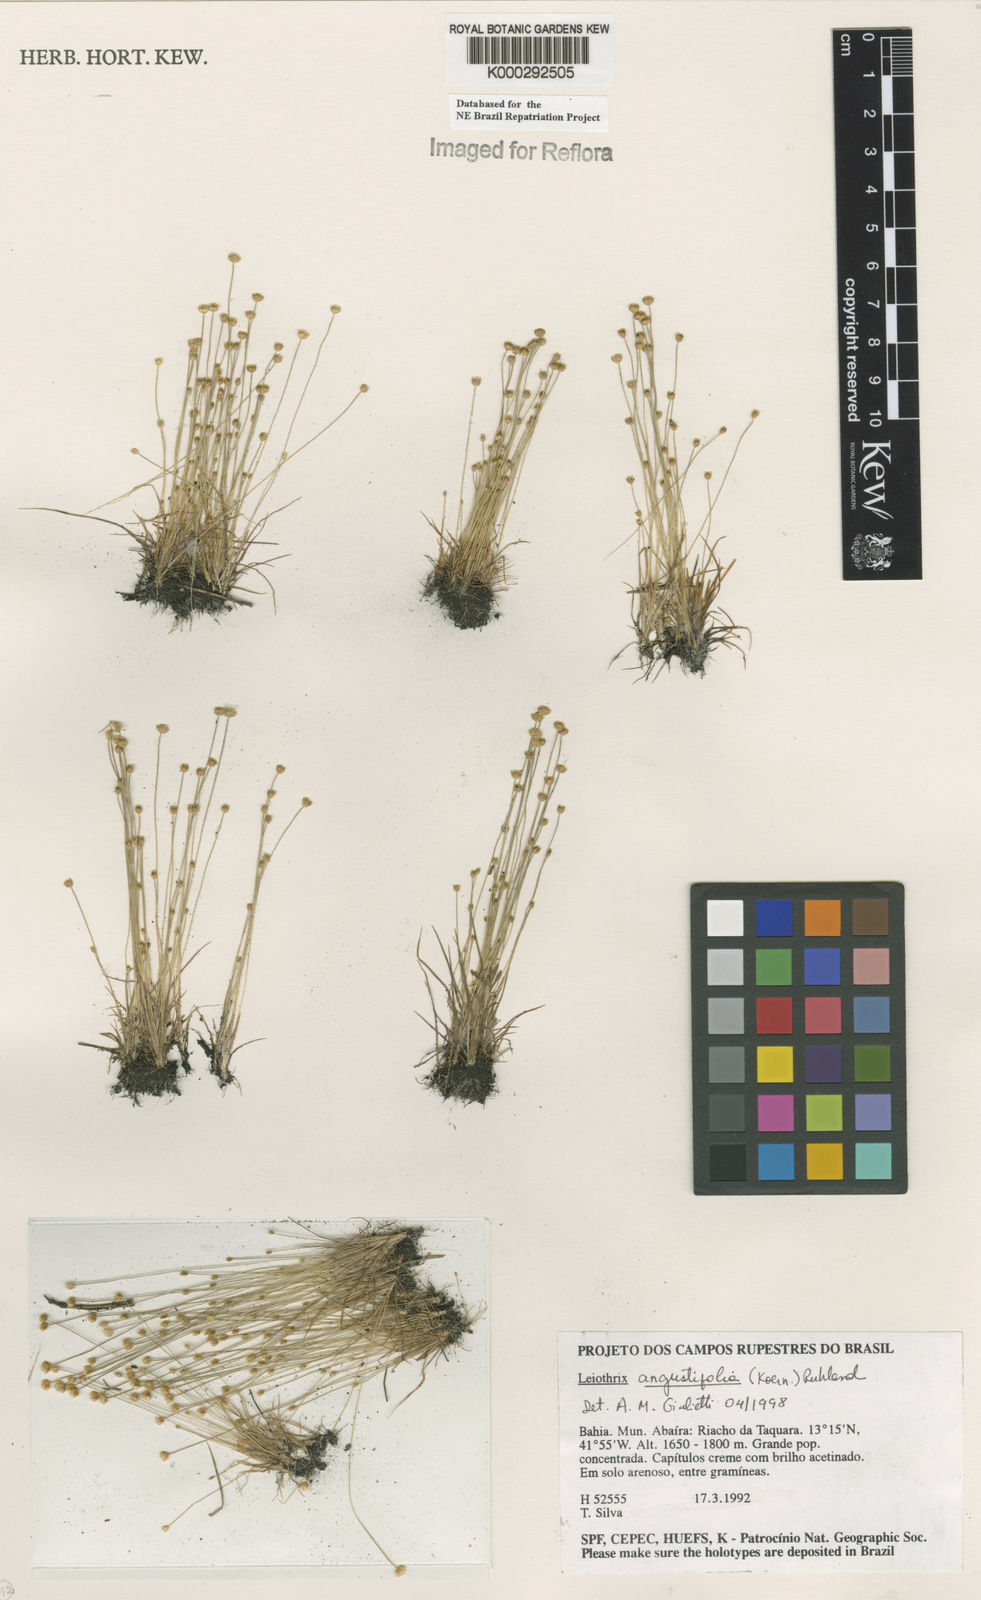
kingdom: Plantae
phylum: Tracheophyta
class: Liliopsida
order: Poales
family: Eriocaulaceae
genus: Leiothrix
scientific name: Leiothrix angustifolia
